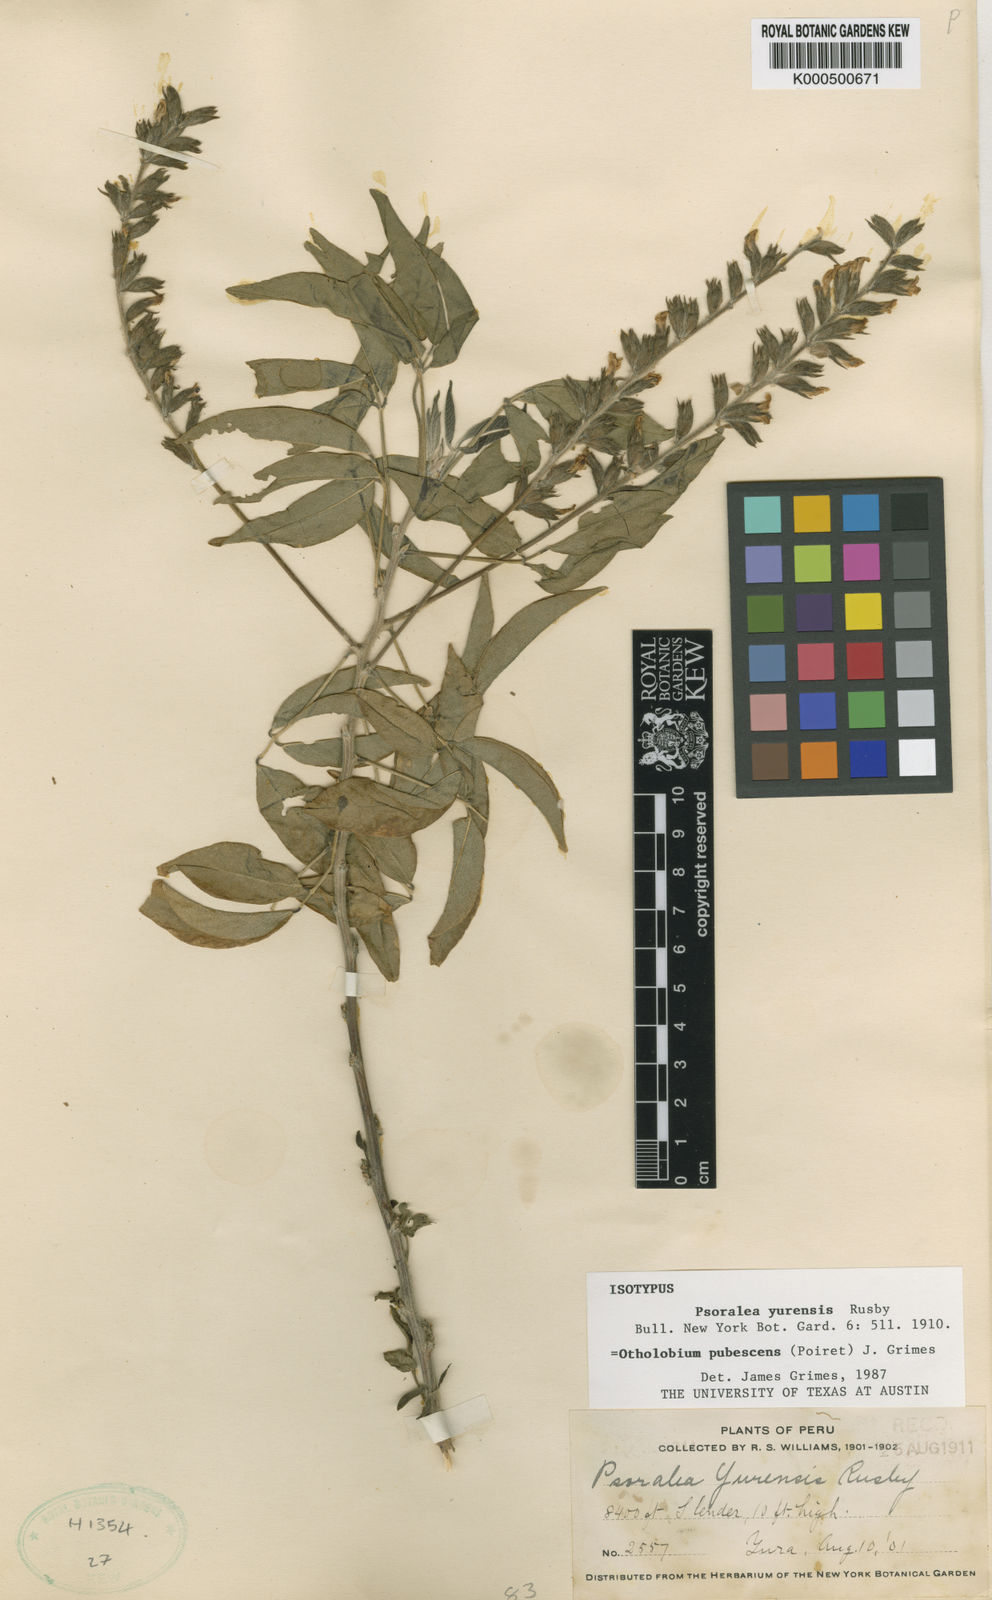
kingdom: Plantae
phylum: Tracheophyta
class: Magnoliopsida
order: Fabales
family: Fabaceae
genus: Psoralea
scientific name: Psoralea Otholobium pubescens
